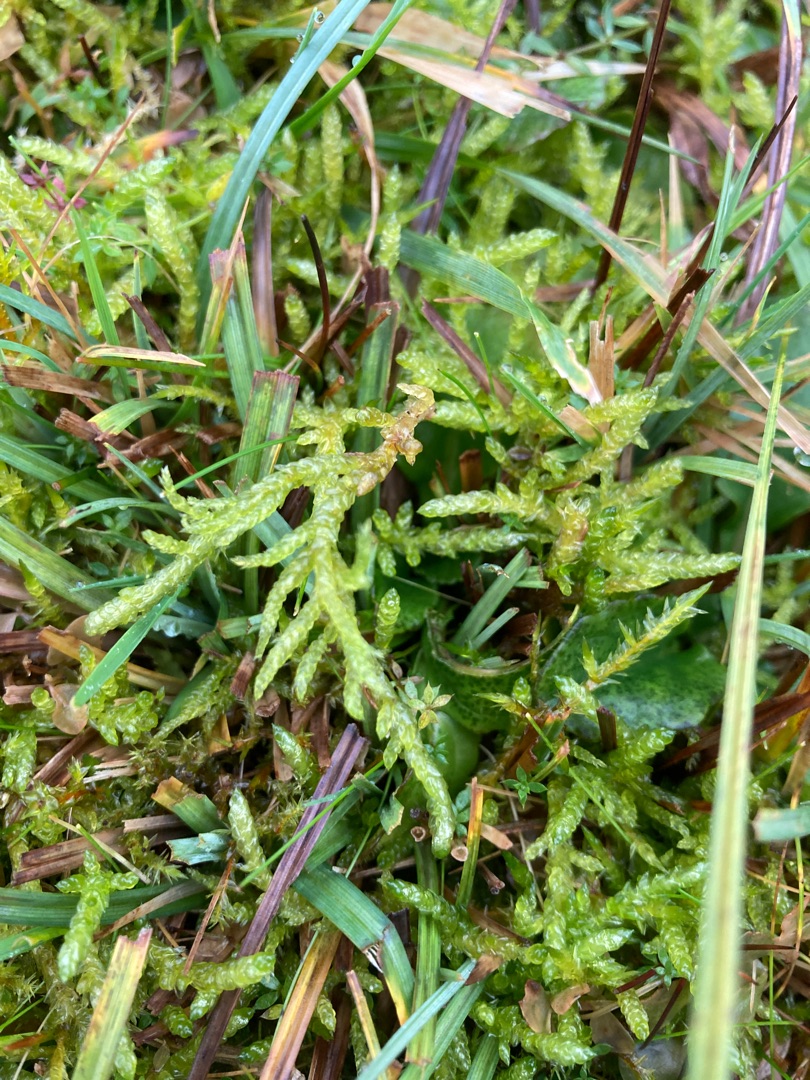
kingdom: Plantae
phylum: Bryophyta
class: Bryopsida
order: Hypnales
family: Brachytheciaceae
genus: Pseudoscleropodium
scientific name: Pseudoscleropodium purum
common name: Hulbladet fedtmos
